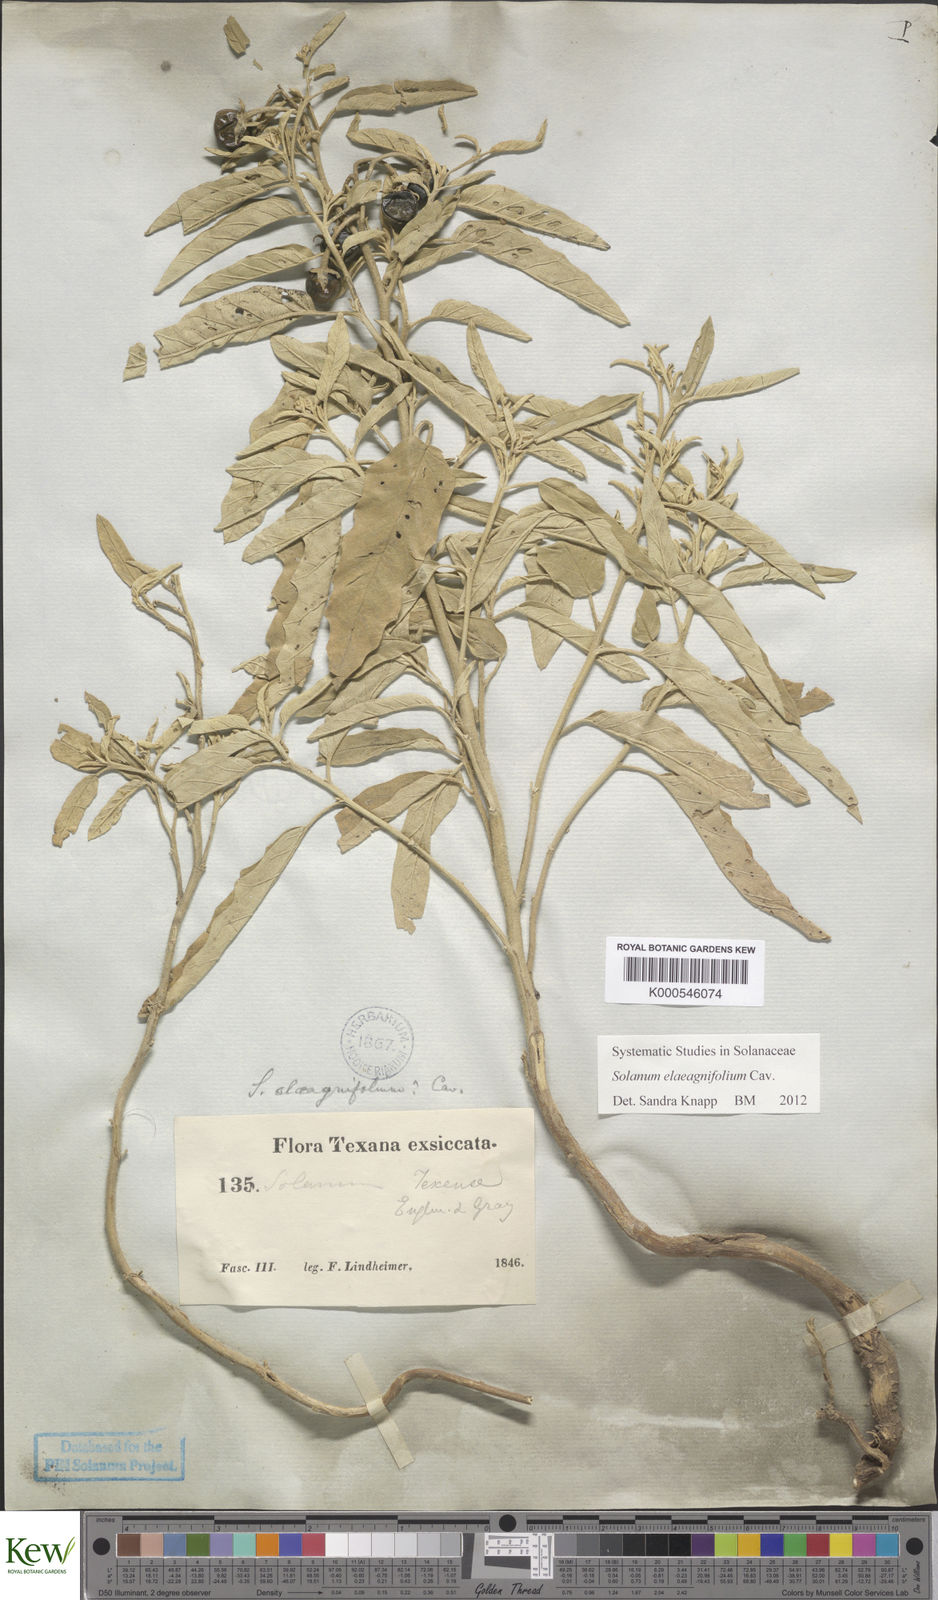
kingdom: Plantae
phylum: Tracheophyta
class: Magnoliopsida
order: Solanales
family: Solanaceae
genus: Solanum
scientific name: Solanum elaeagnifolium
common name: Silverleaf nightshade
